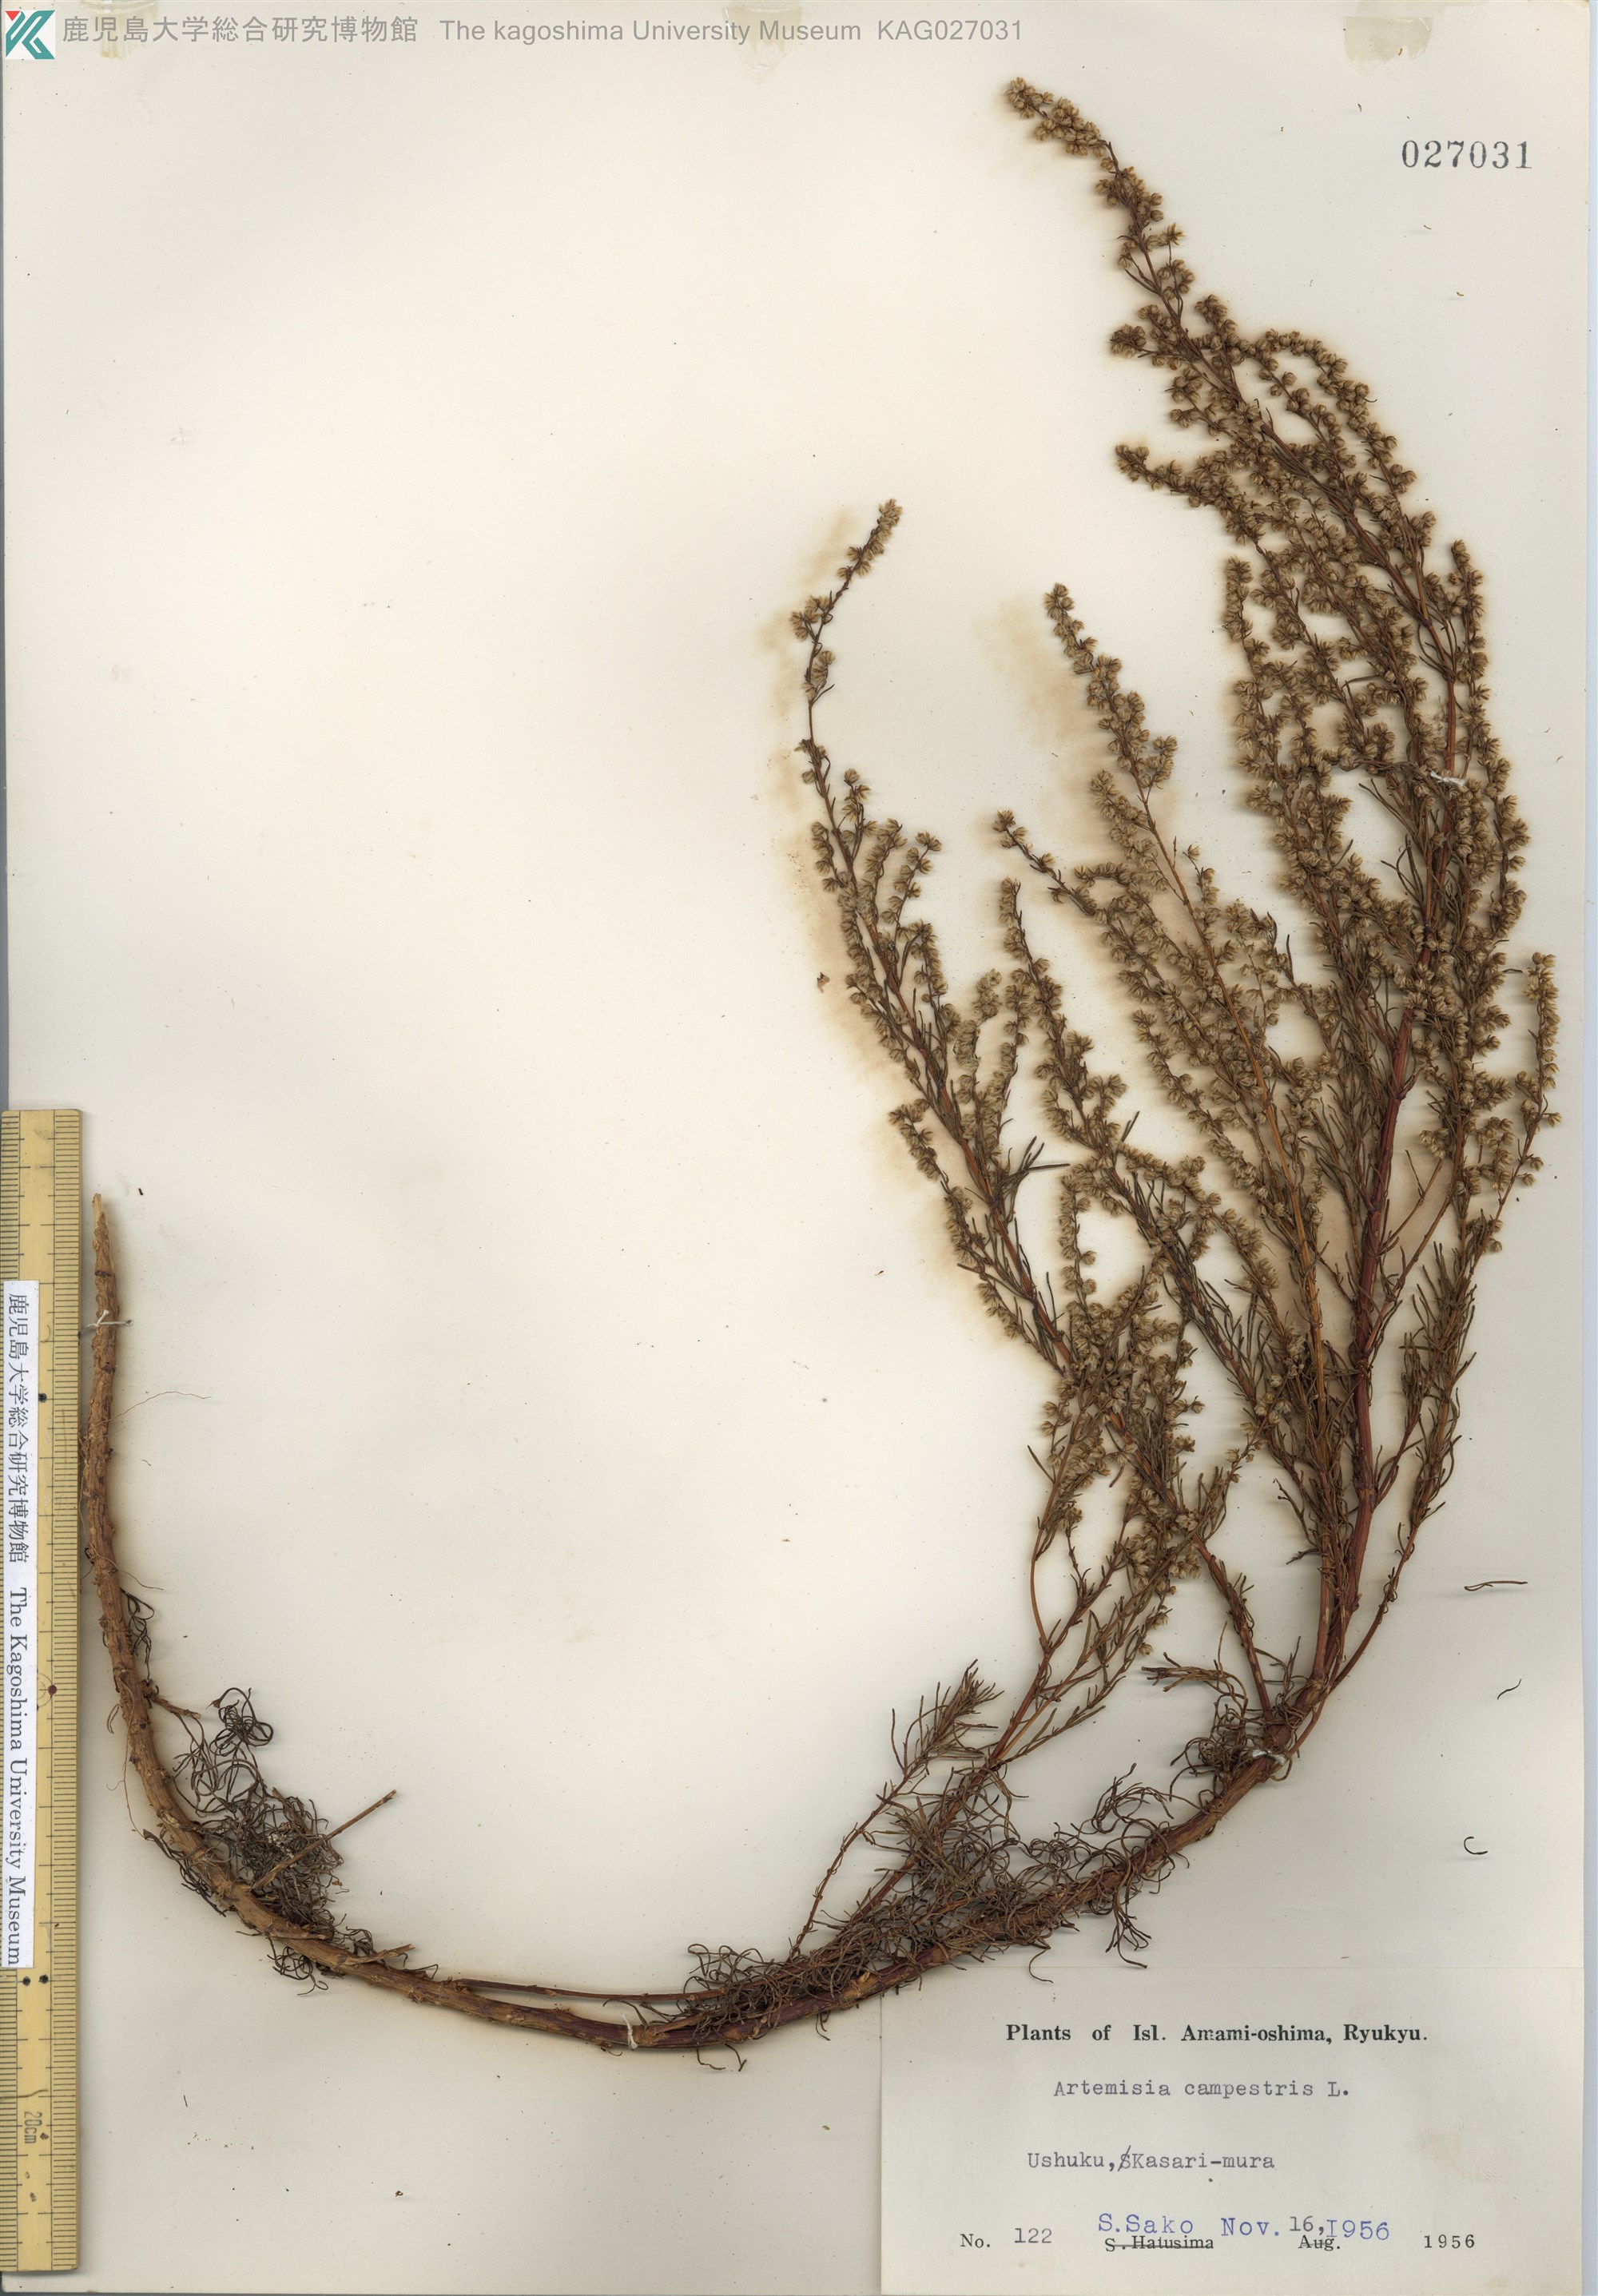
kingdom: Plantae
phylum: Tracheophyta
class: Magnoliopsida
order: Asterales
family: Asteraceae
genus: Artemisia
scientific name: Artemisia morrisonensis
